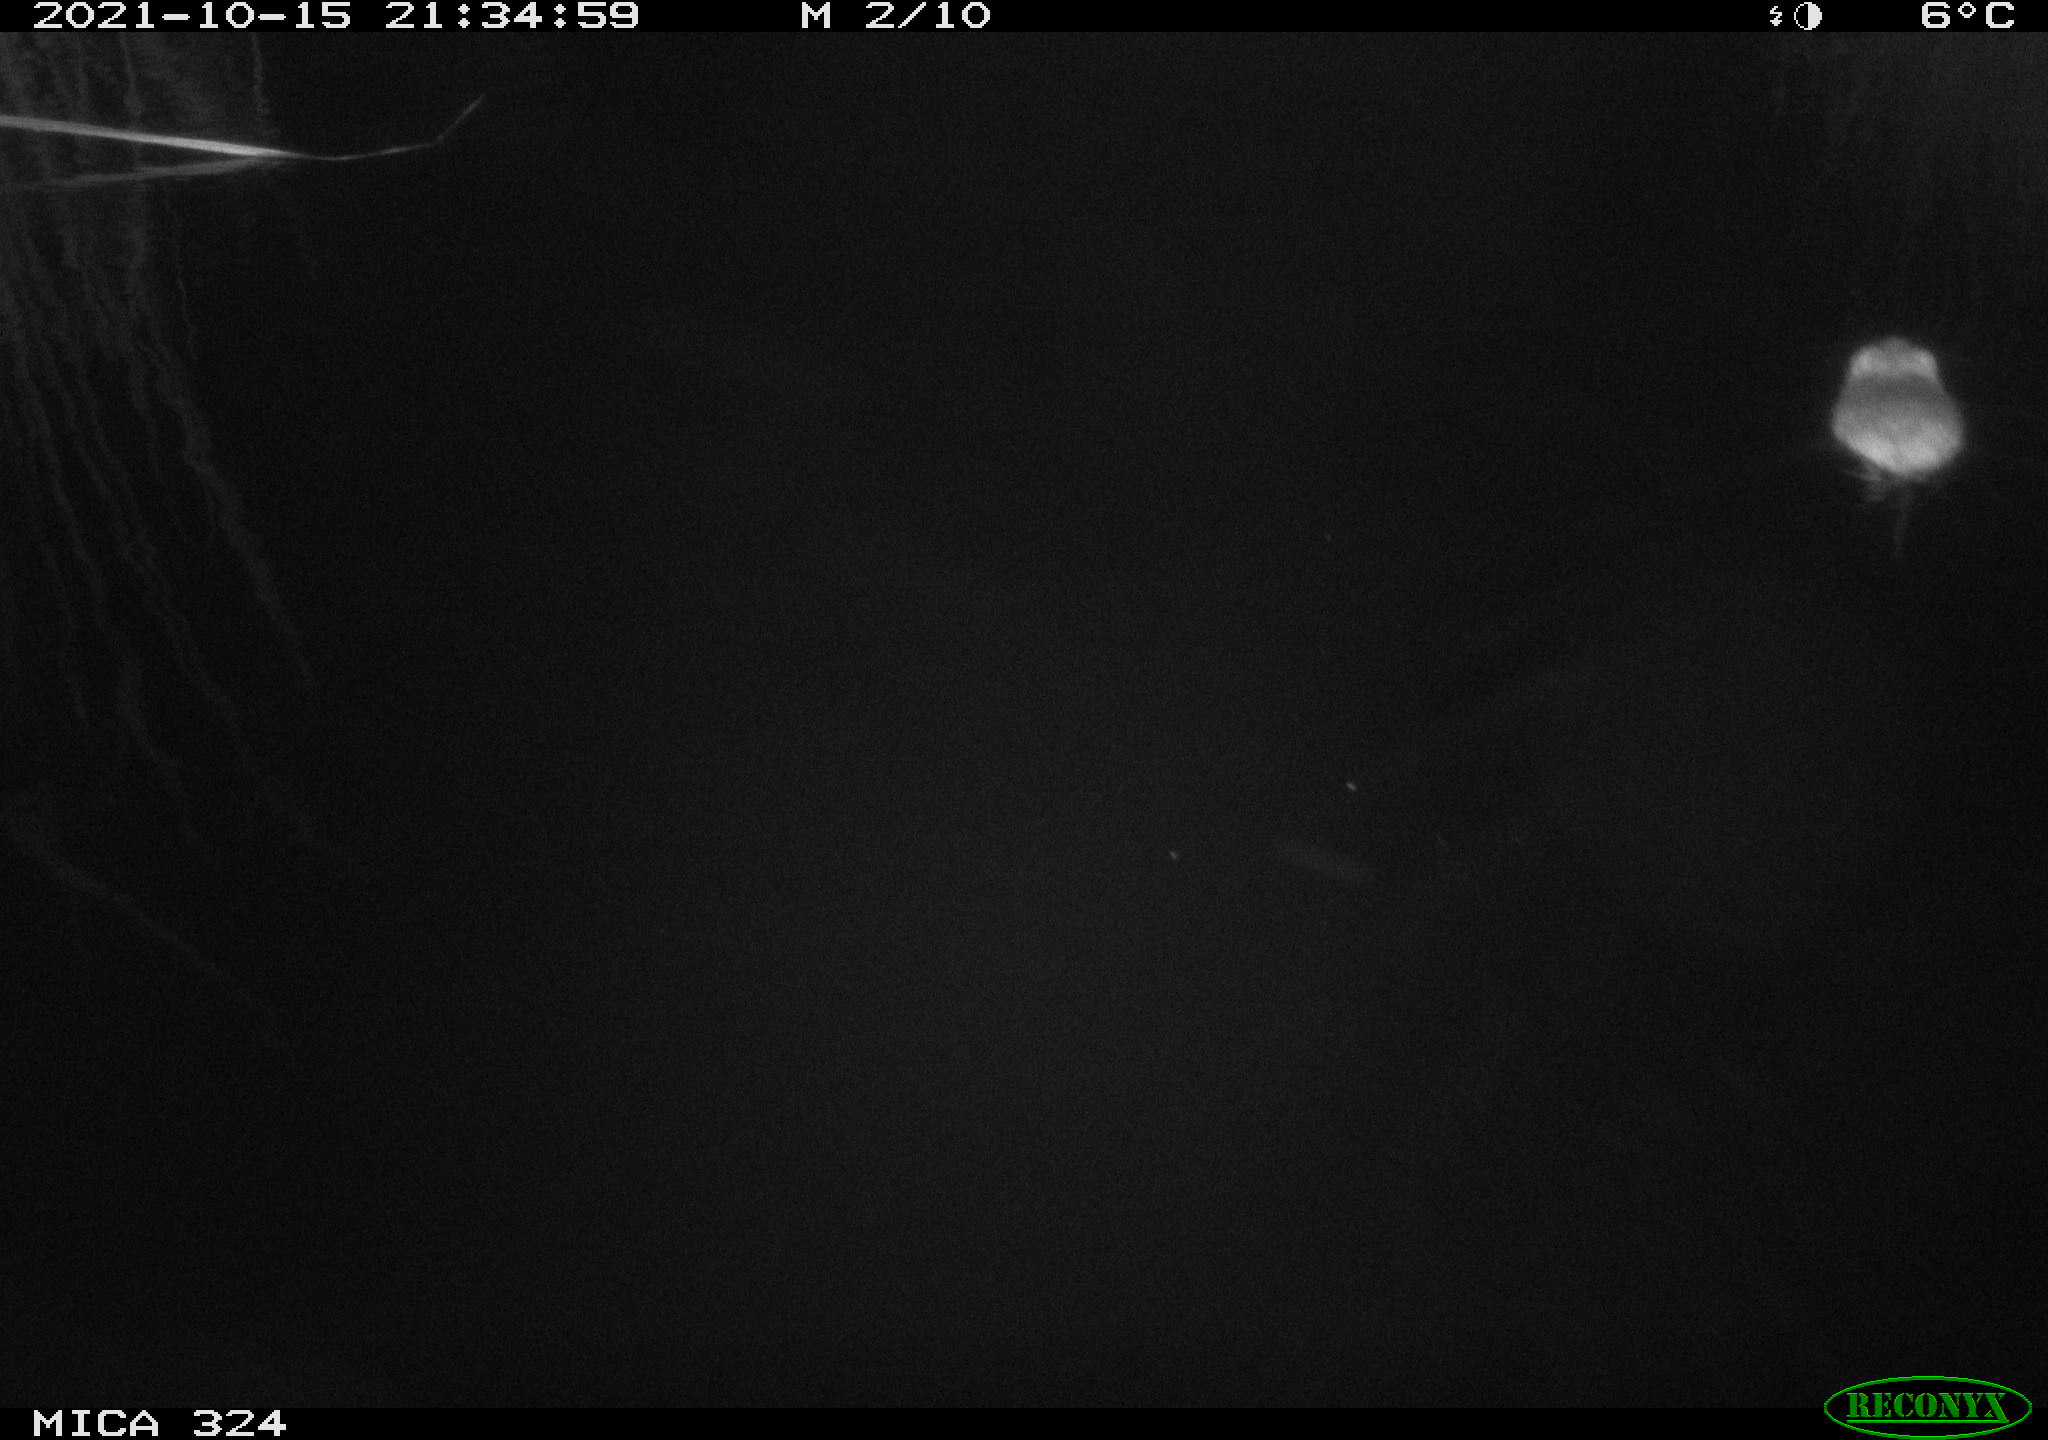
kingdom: Animalia
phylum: Chordata
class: Mammalia
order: Rodentia
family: Cricetidae
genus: Ondatra
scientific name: Ondatra zibethicus
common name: Muskrat
